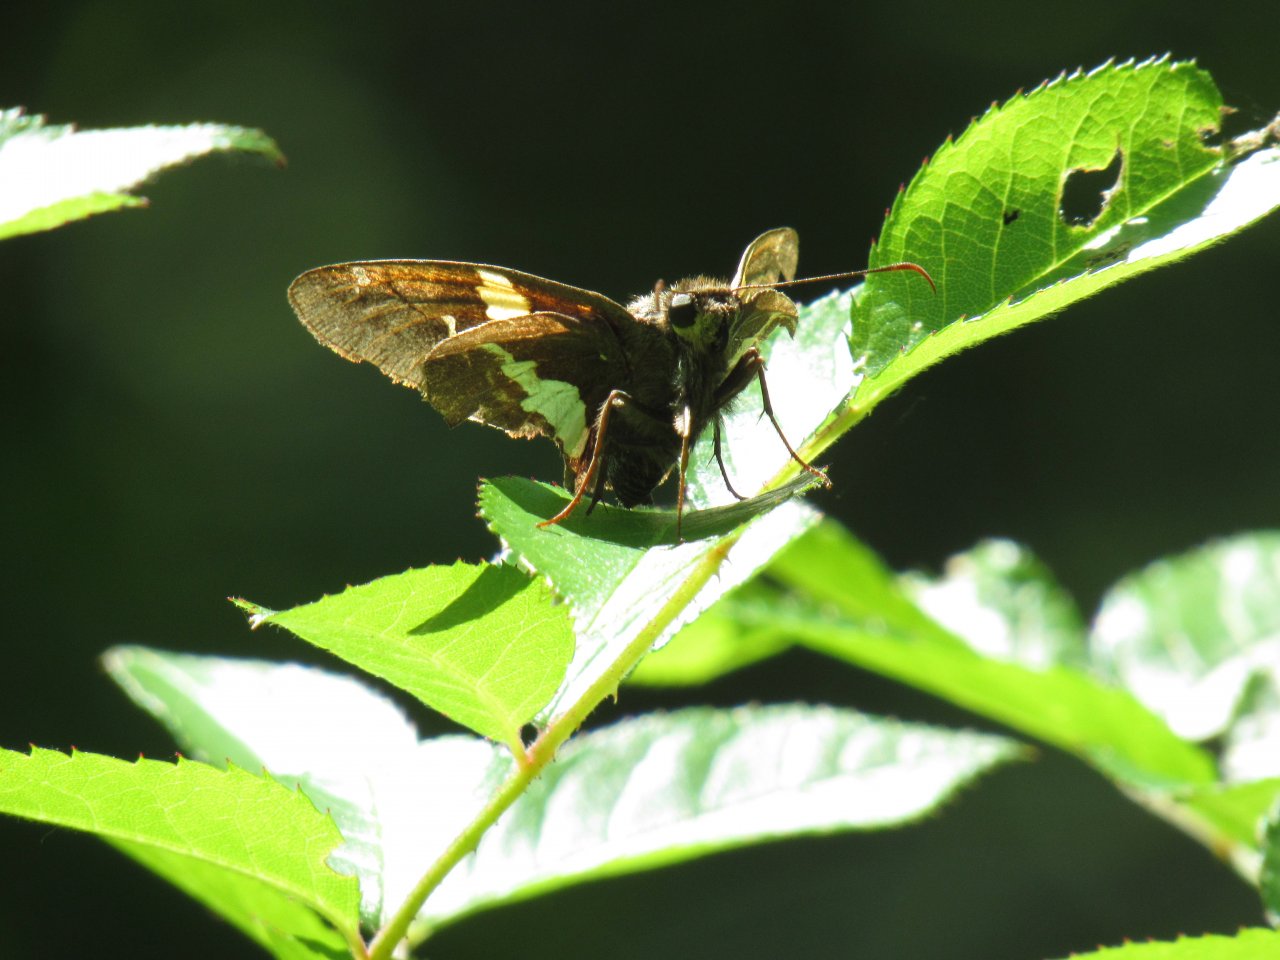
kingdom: Animalia
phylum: Arthropoda
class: Insecta
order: Lepidoptera
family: Hesperiidae
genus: Epargyreus
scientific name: Epargyreus clarus
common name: Silver-spotted Skipper
